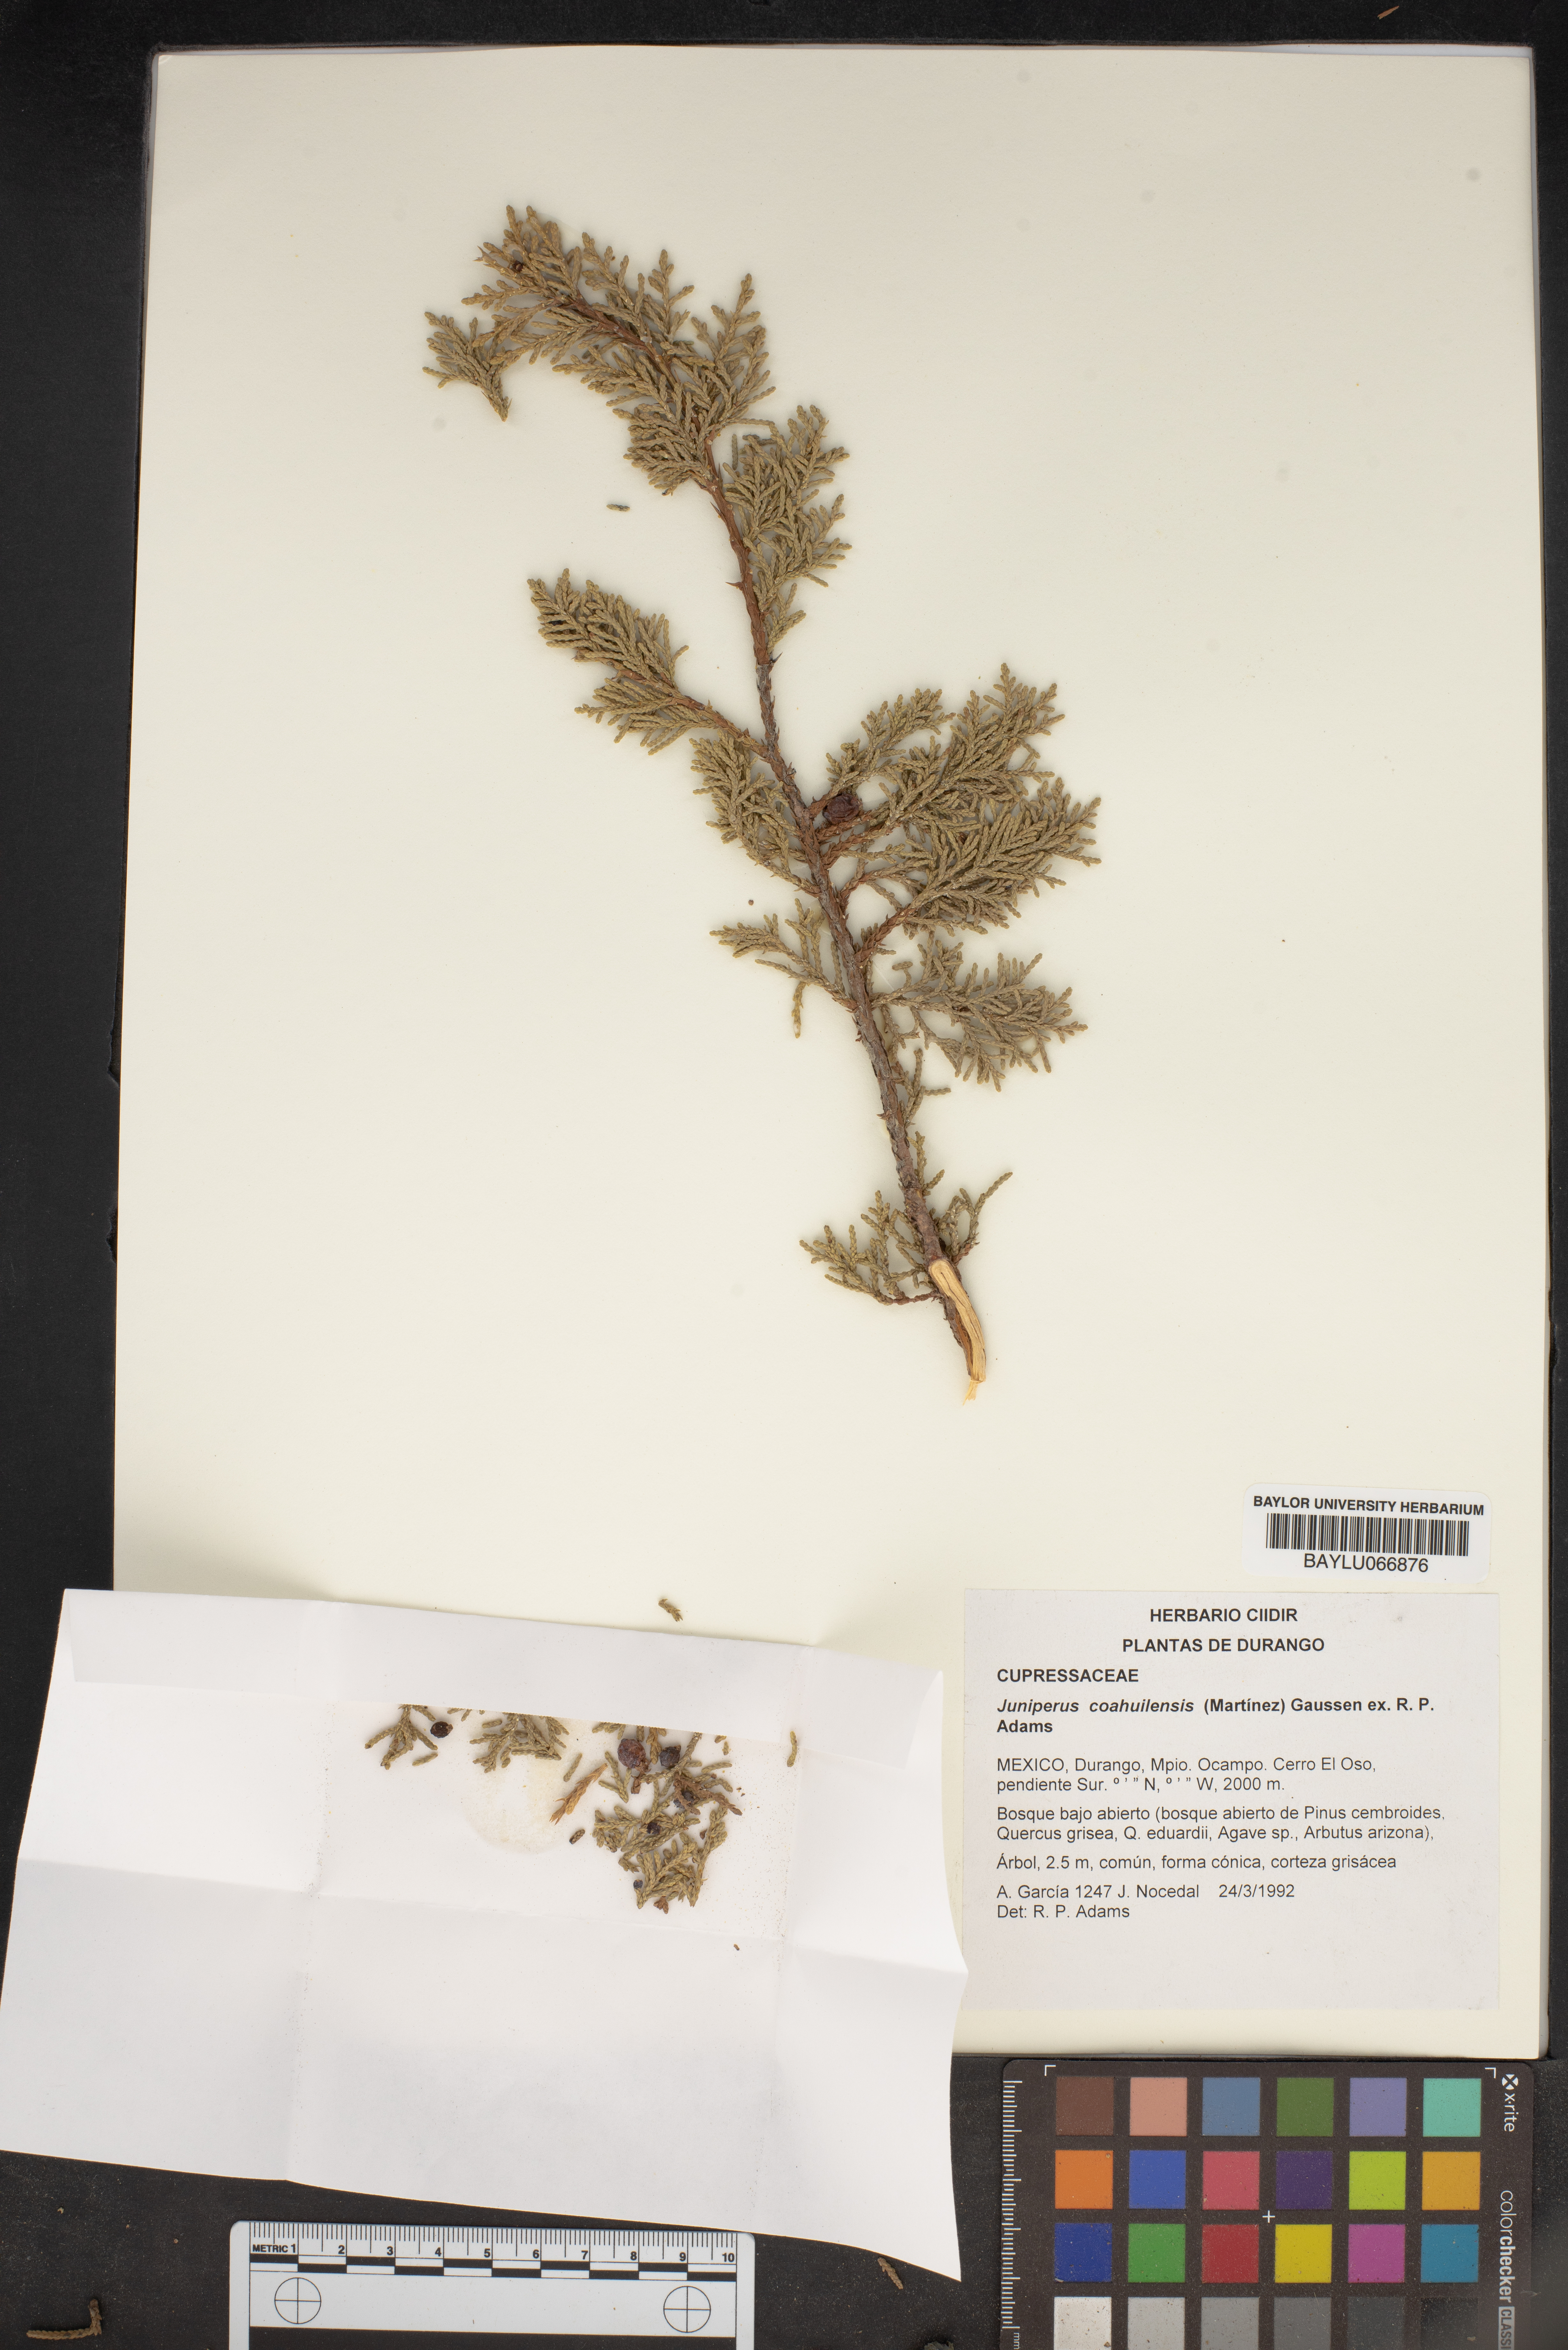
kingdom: Plantae
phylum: Tracheophyta
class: Pinopsida
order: Pinales
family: Cupressaceae
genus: Juniperus
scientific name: Juniperus coahuilensis
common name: Roseberry
